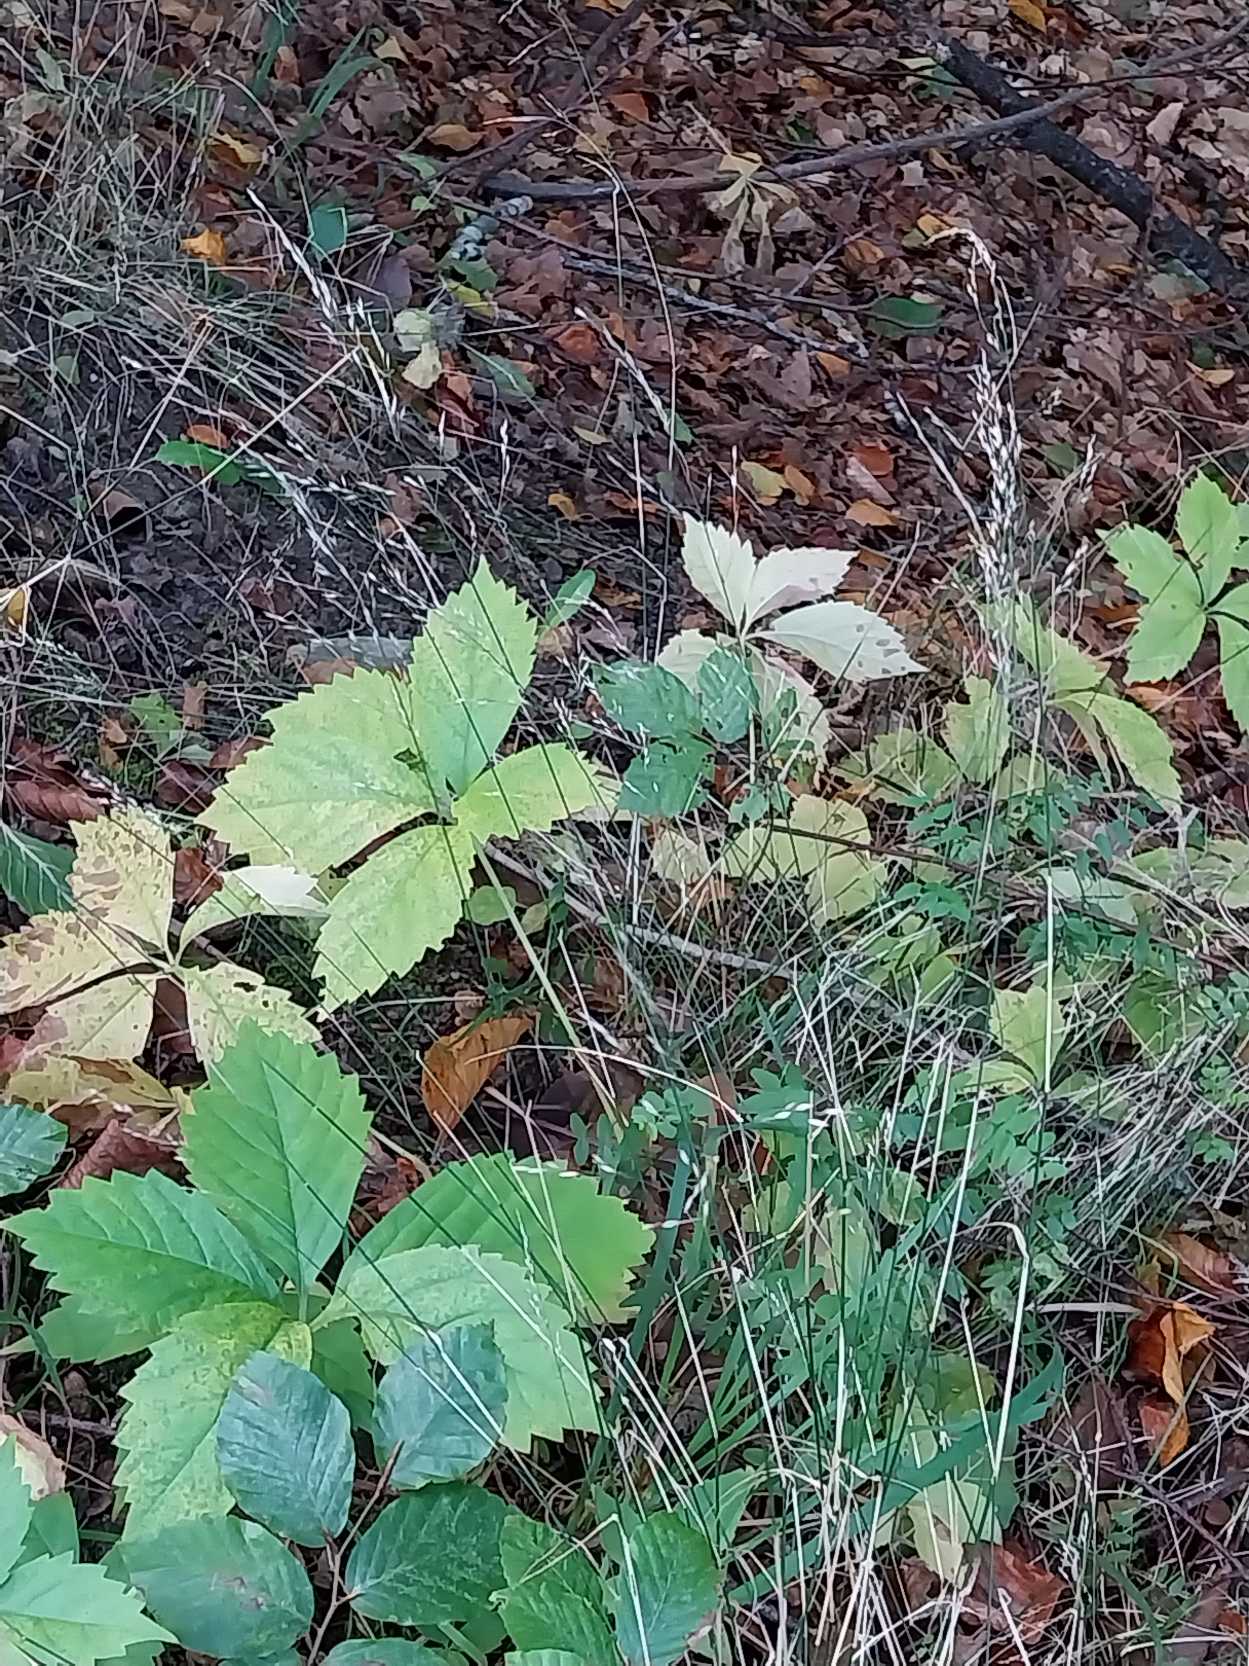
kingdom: Plantae
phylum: Tracheophyta
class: Liliopsida
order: Poales
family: Poaceae
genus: Poa
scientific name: Poa nemoralis
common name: Lund-rapgræs
